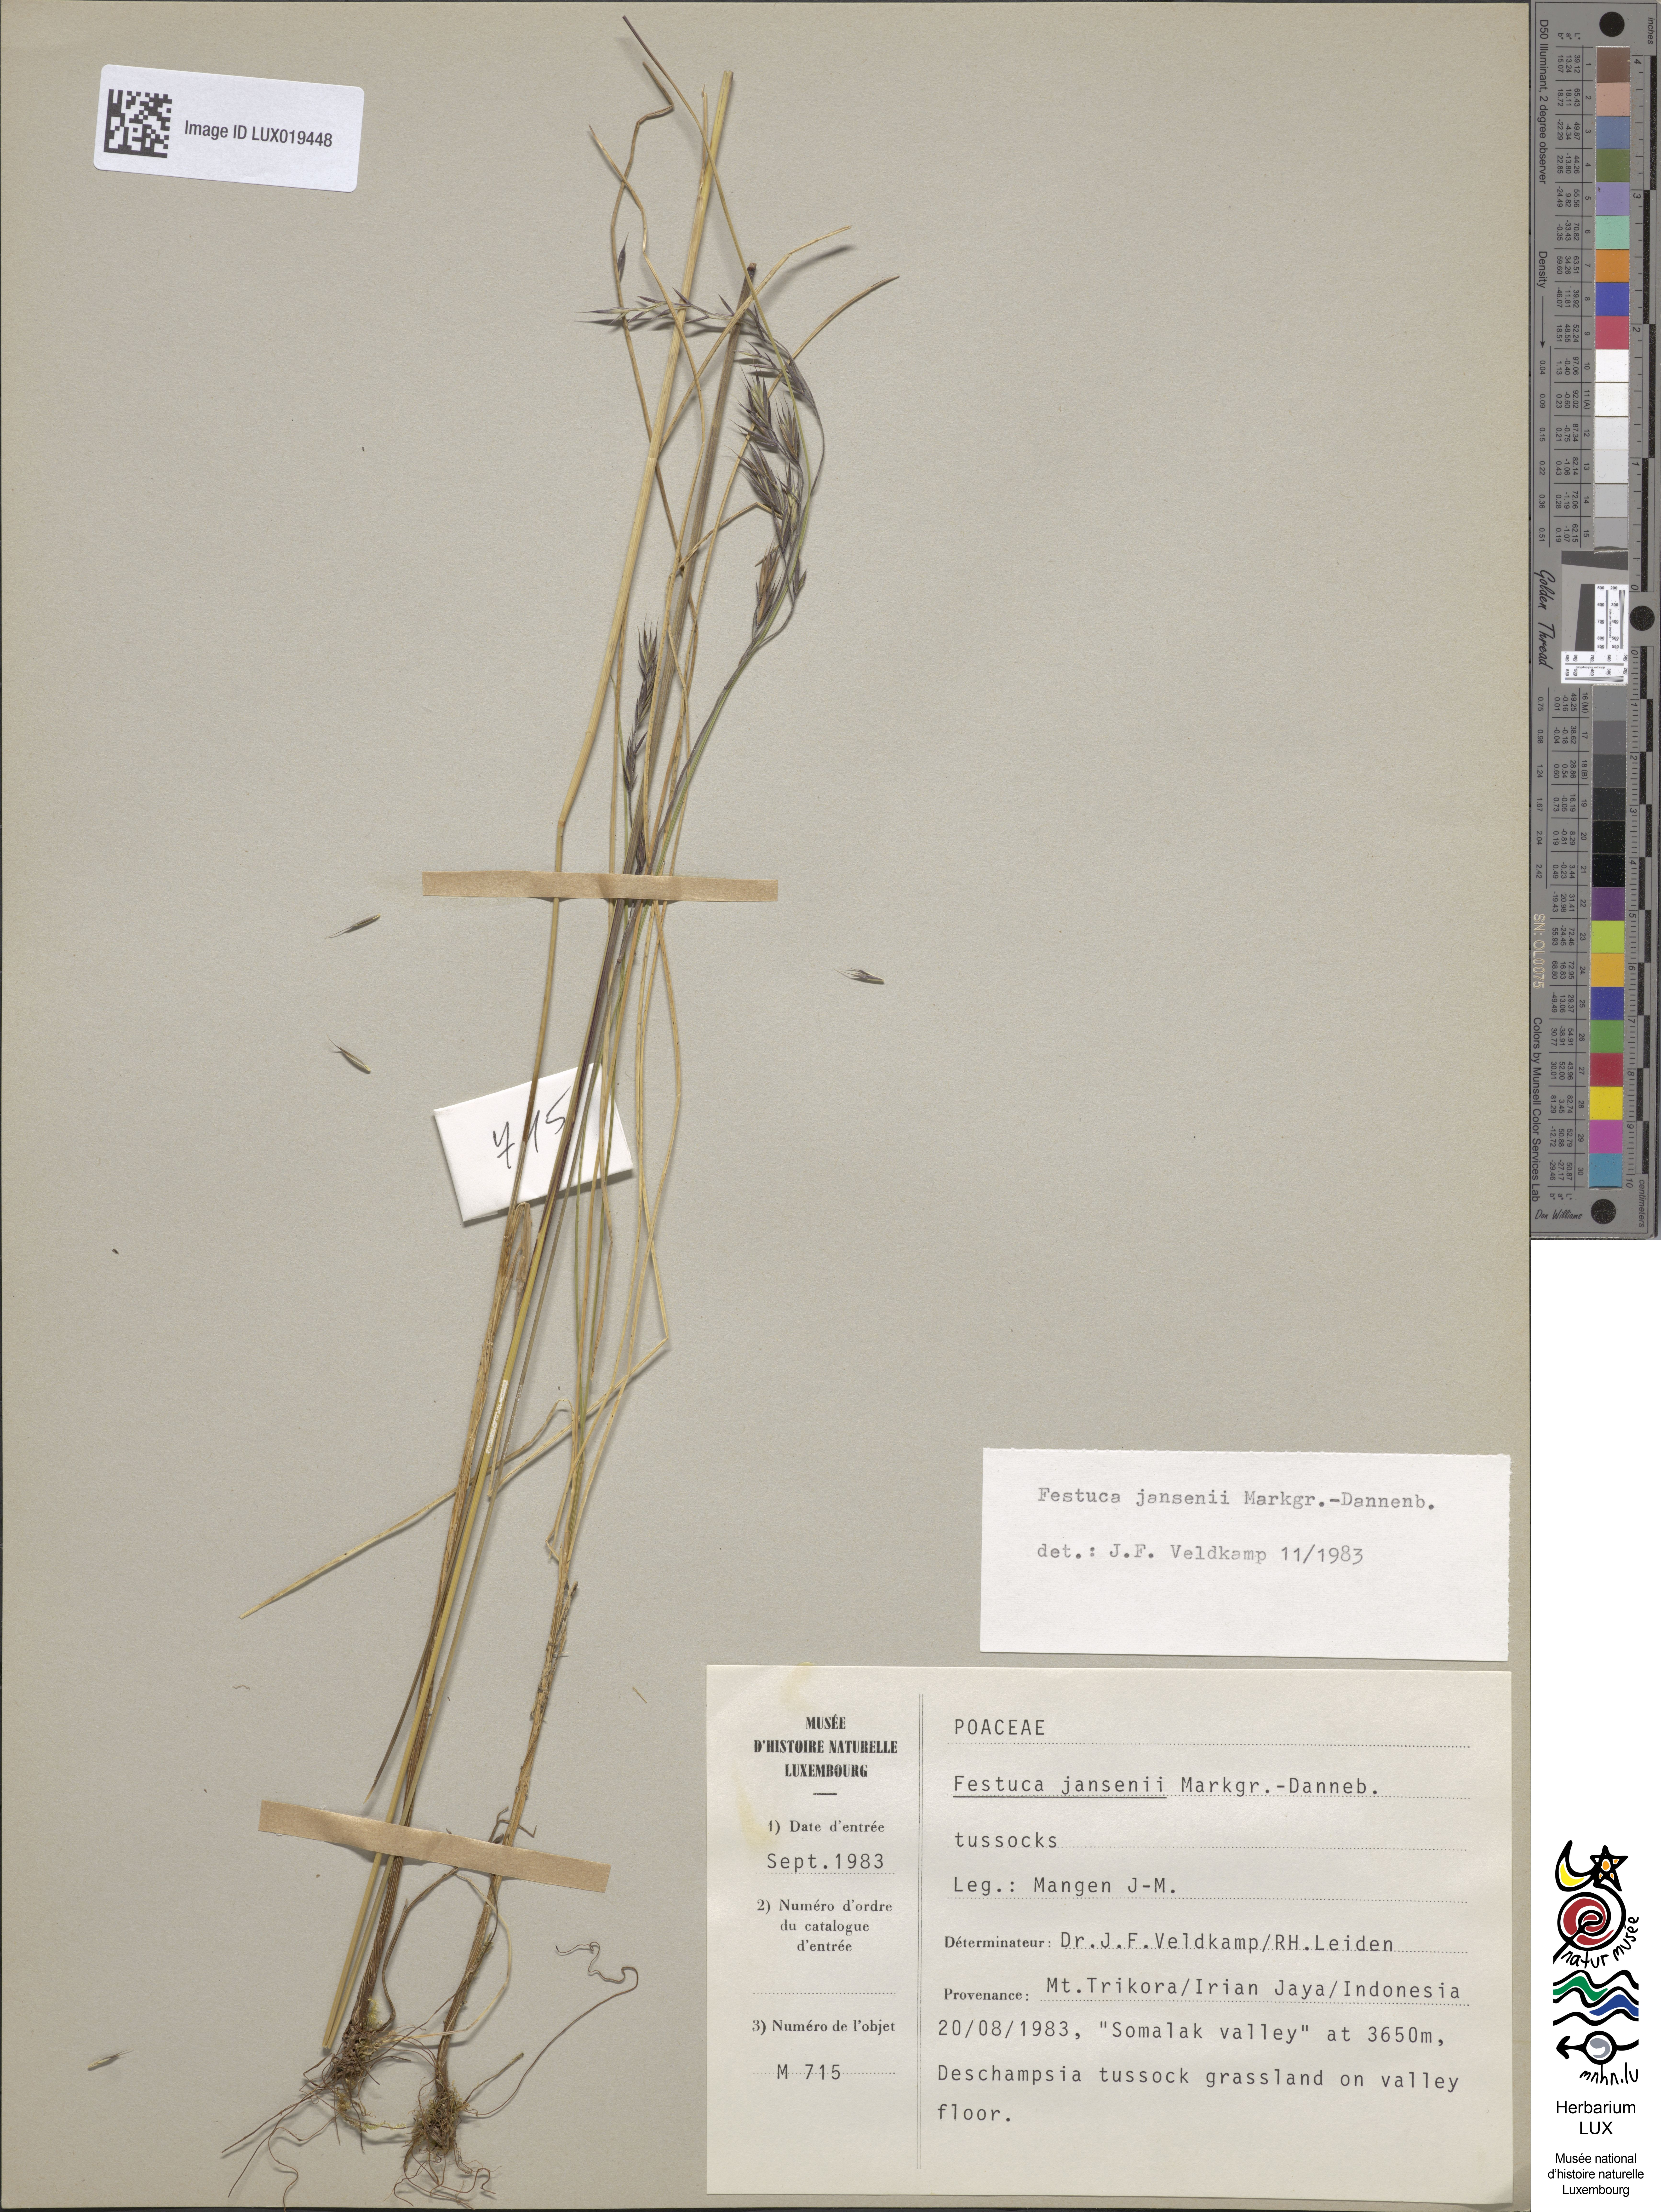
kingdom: Plantae
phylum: Tracheophyta
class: Liliopsida
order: Poales
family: Poaceae
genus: Festuca
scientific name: Festuca jansenii
